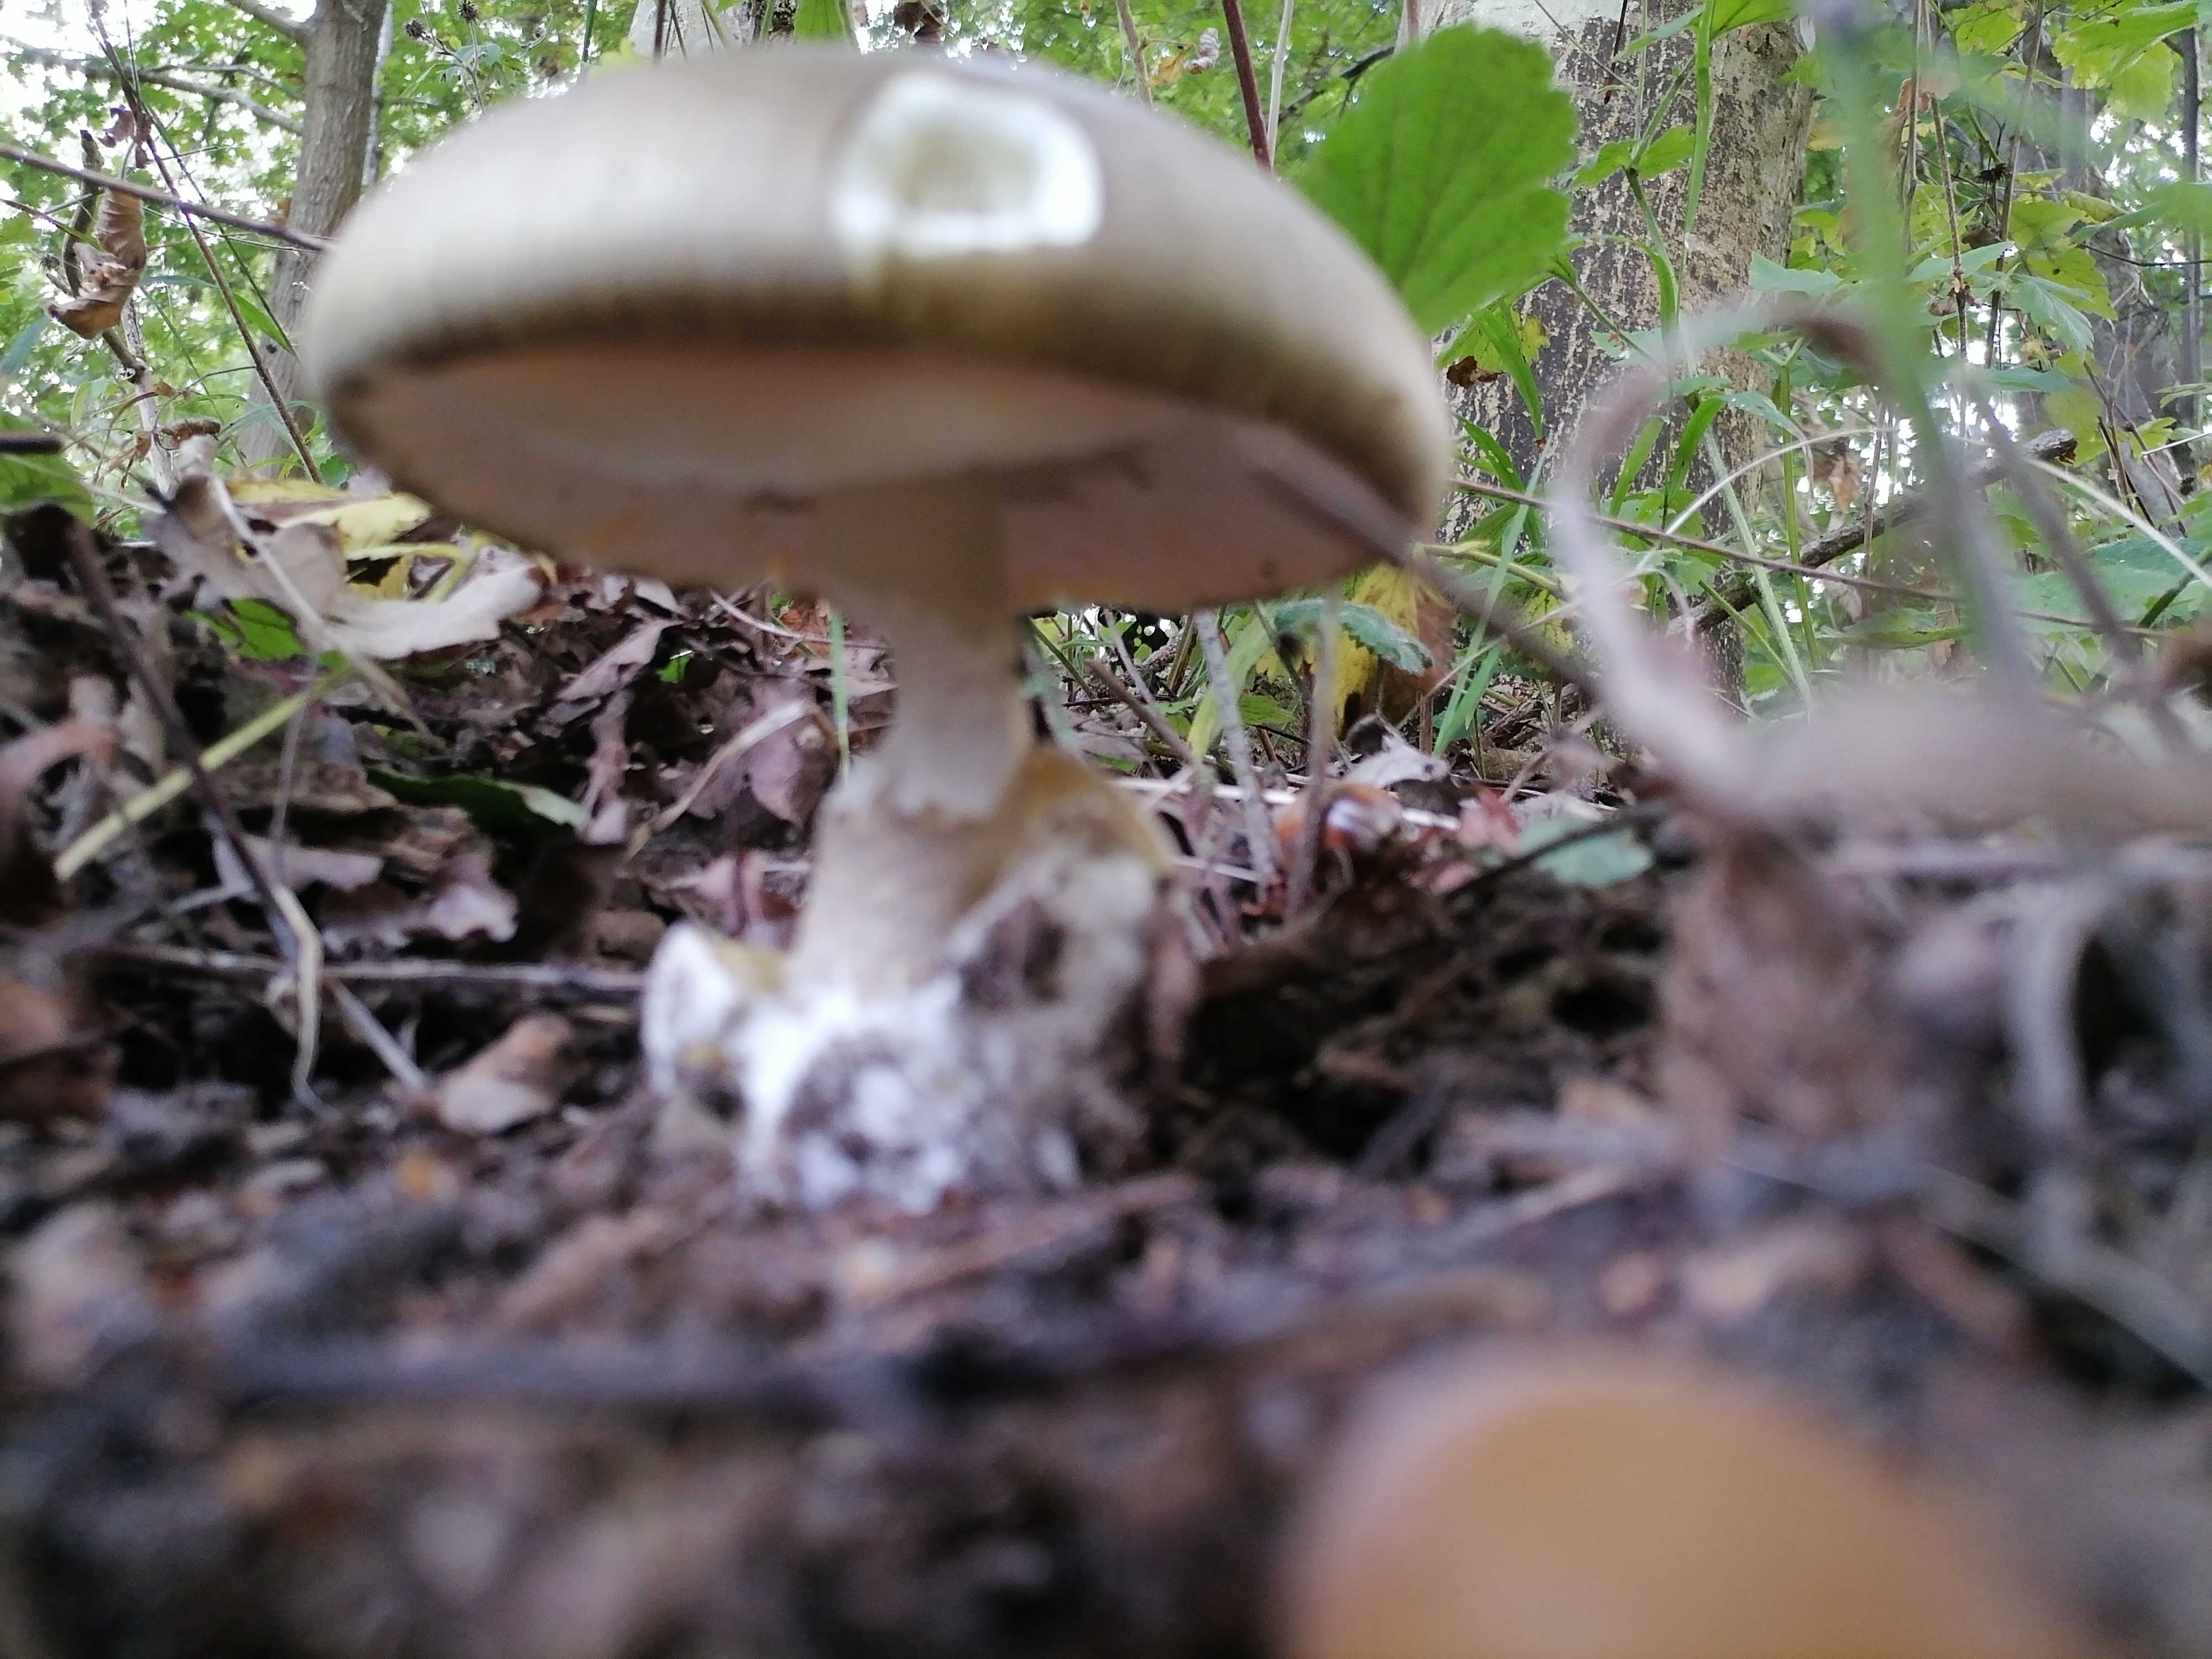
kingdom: Fungi
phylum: Basidiomycota
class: Agaricomycetes
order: Agaricales
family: Amanitaceae
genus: Amanita
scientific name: Amanita phalloides
